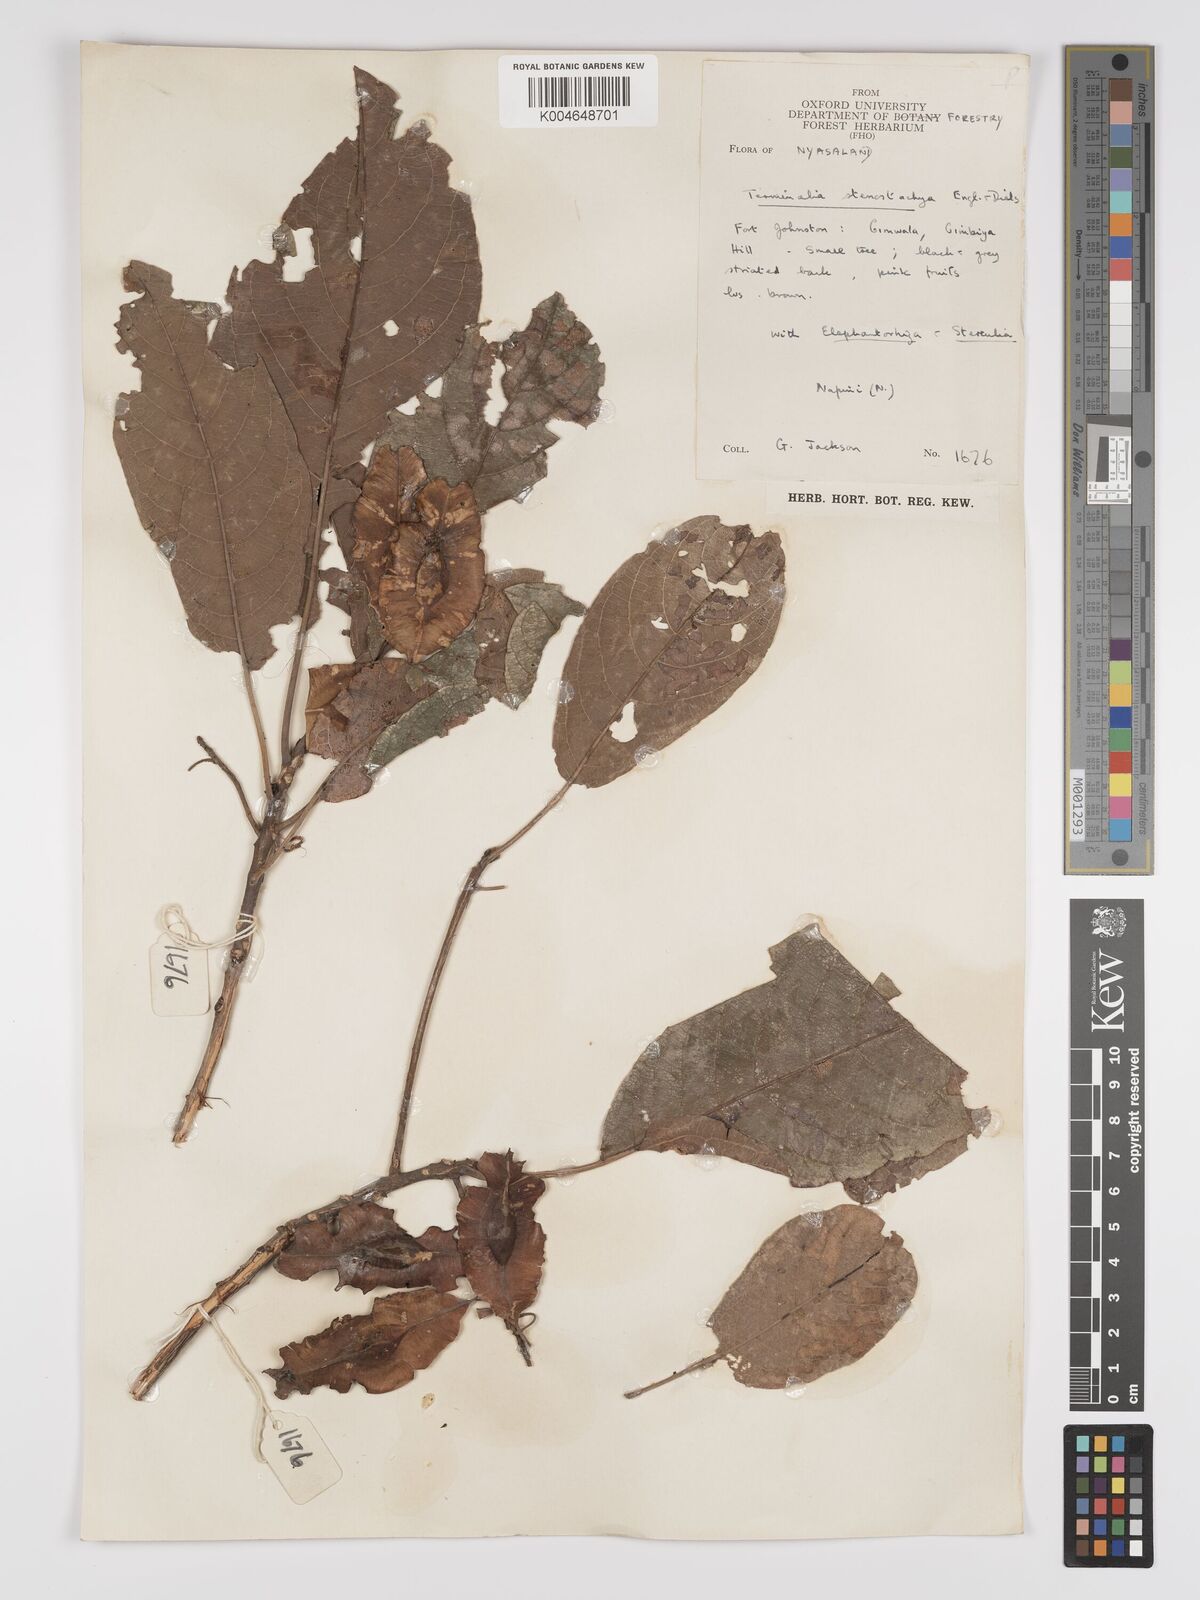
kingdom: Plantae
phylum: Tracheophyta
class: Magnoliopsida
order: Myrtales
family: Combretaceae
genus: Terminalia
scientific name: Terminalia stenostachya
